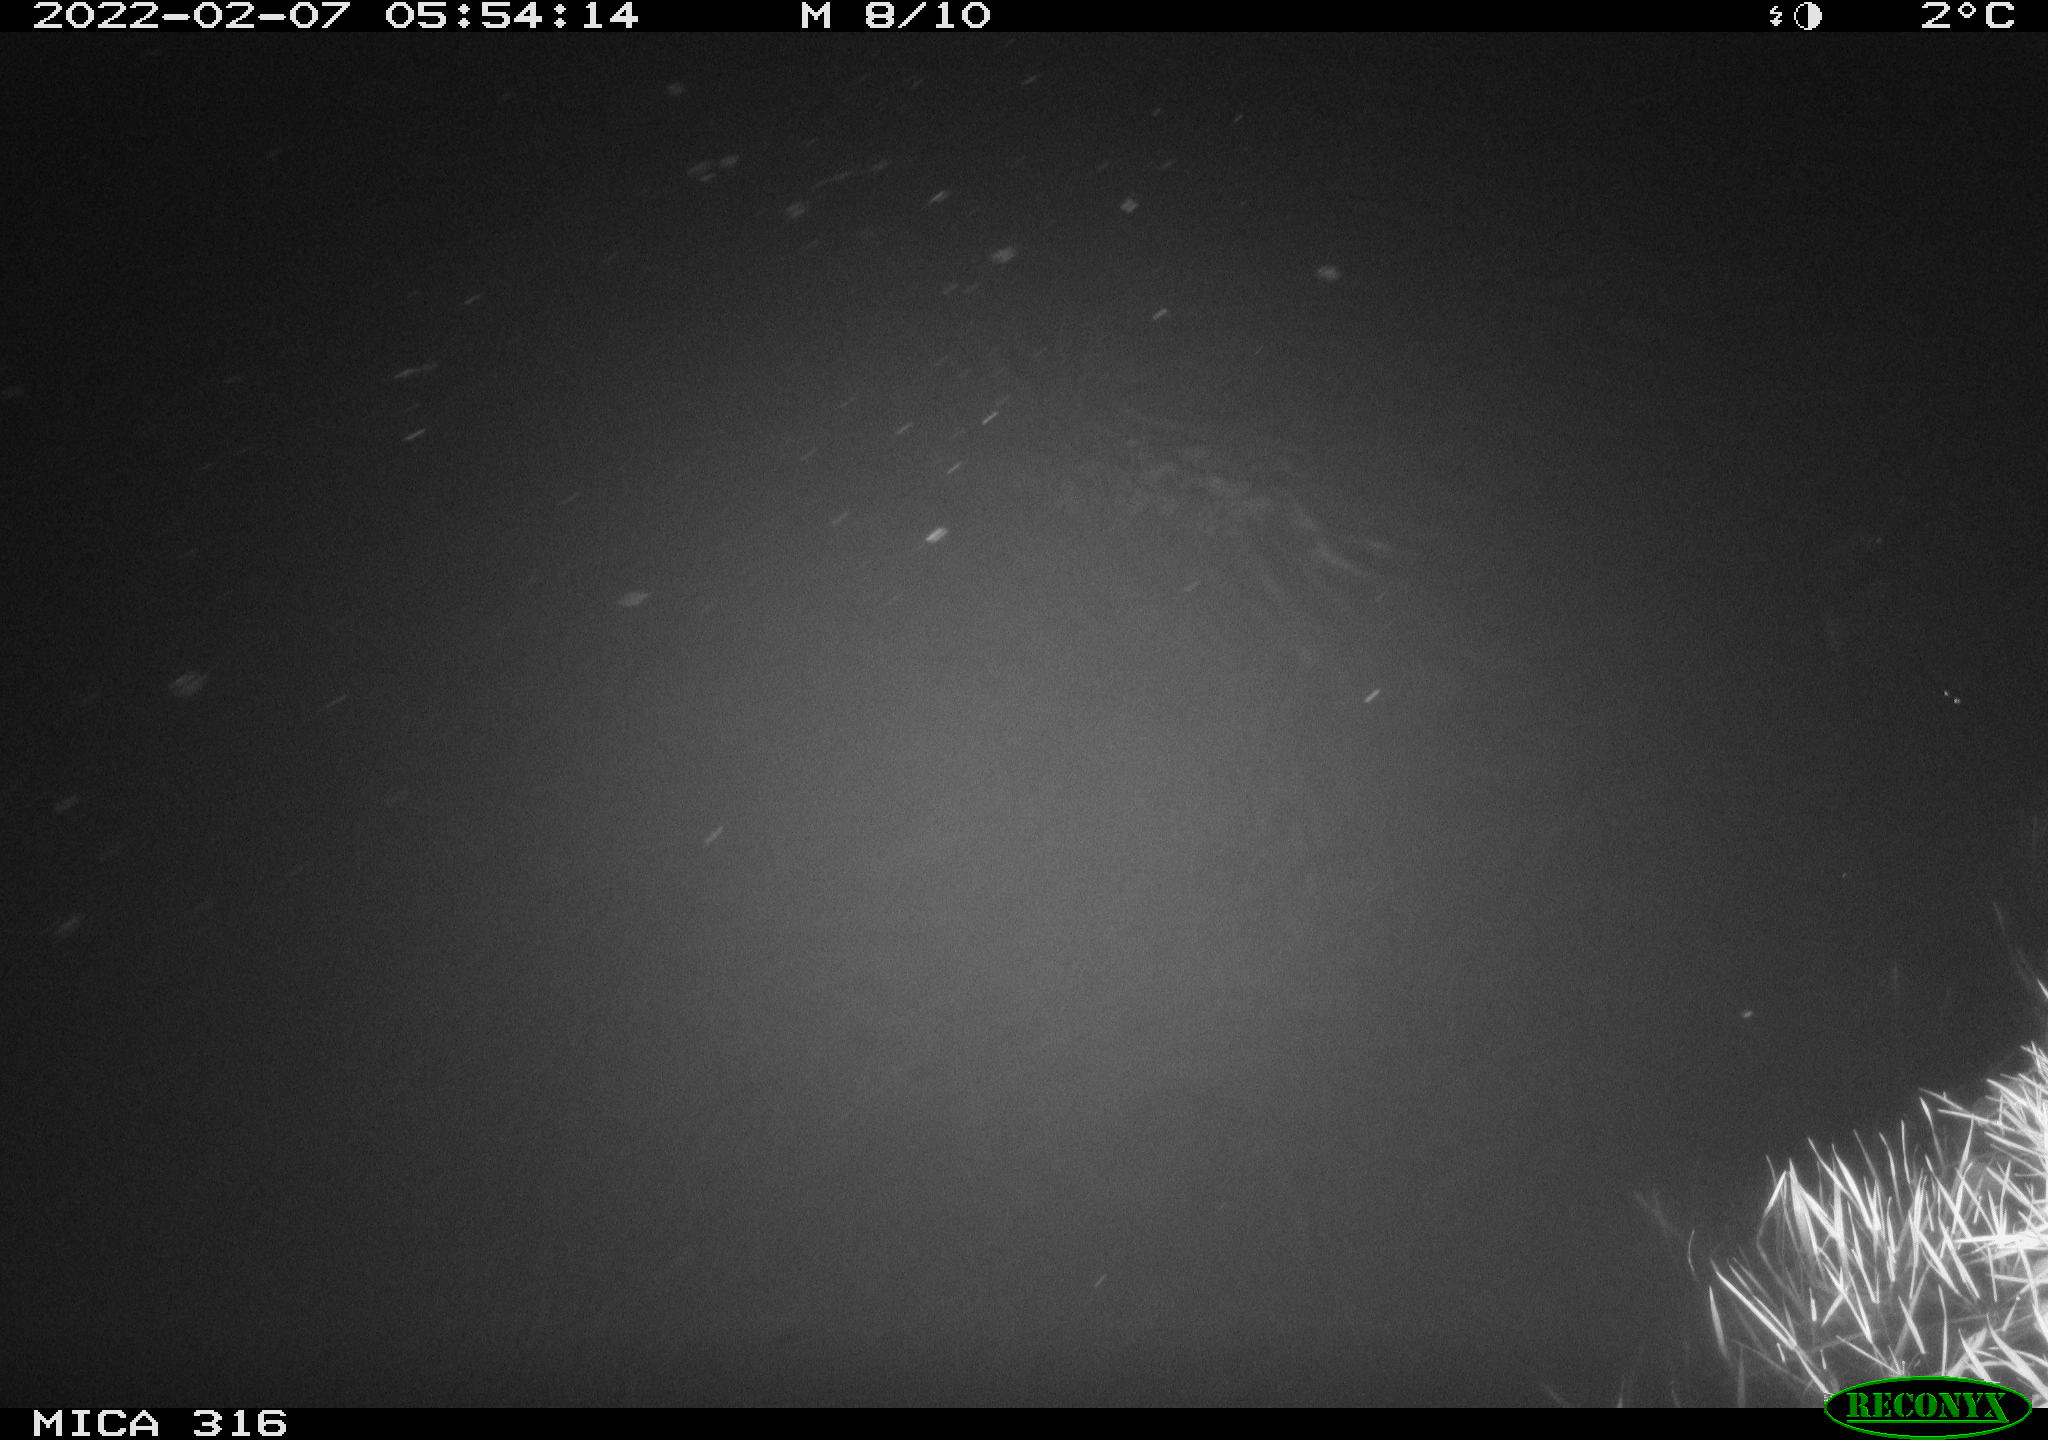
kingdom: Animalia
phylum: Chordata
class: Mammalia
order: Rodentia
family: Muridae
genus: Rattus
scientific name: Rattus norvegicus
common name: Brown rat
